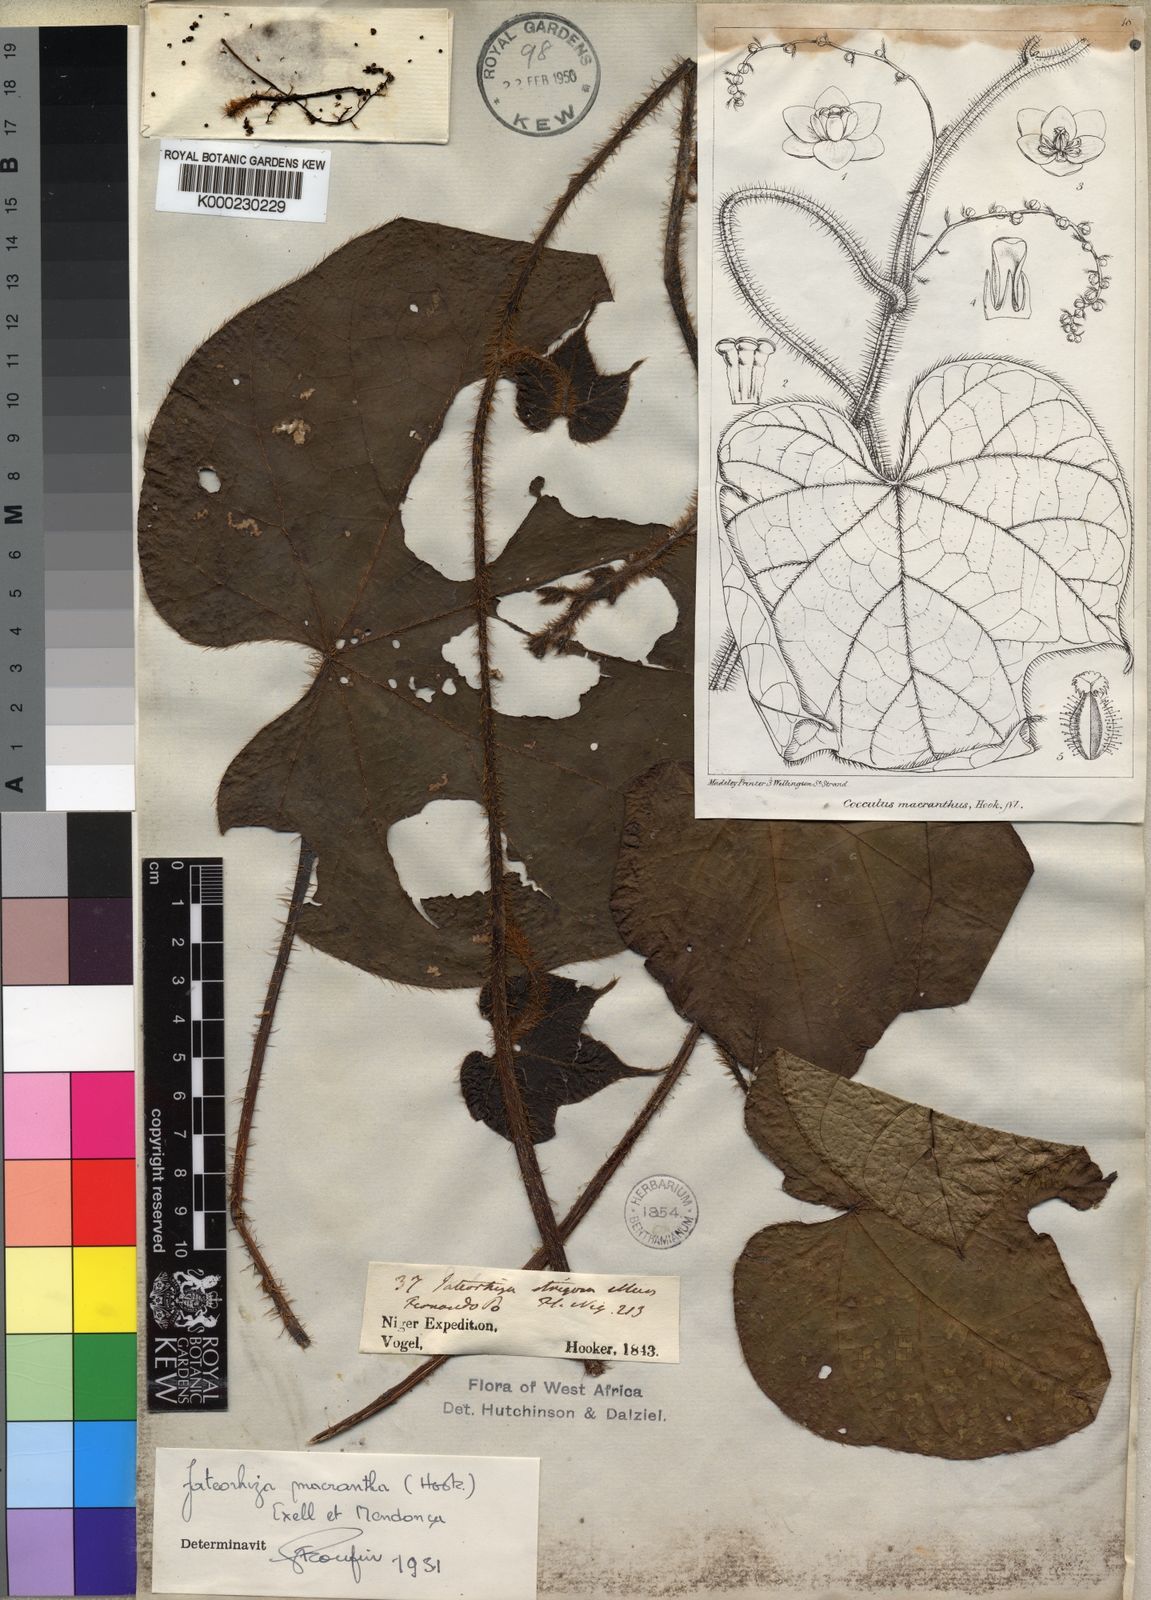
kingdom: Plantae
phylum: Tracheophyta
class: Magnoliopsida
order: Ranunculales
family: Menispermaceae
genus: Jateorhiza
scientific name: Jateorhiza
